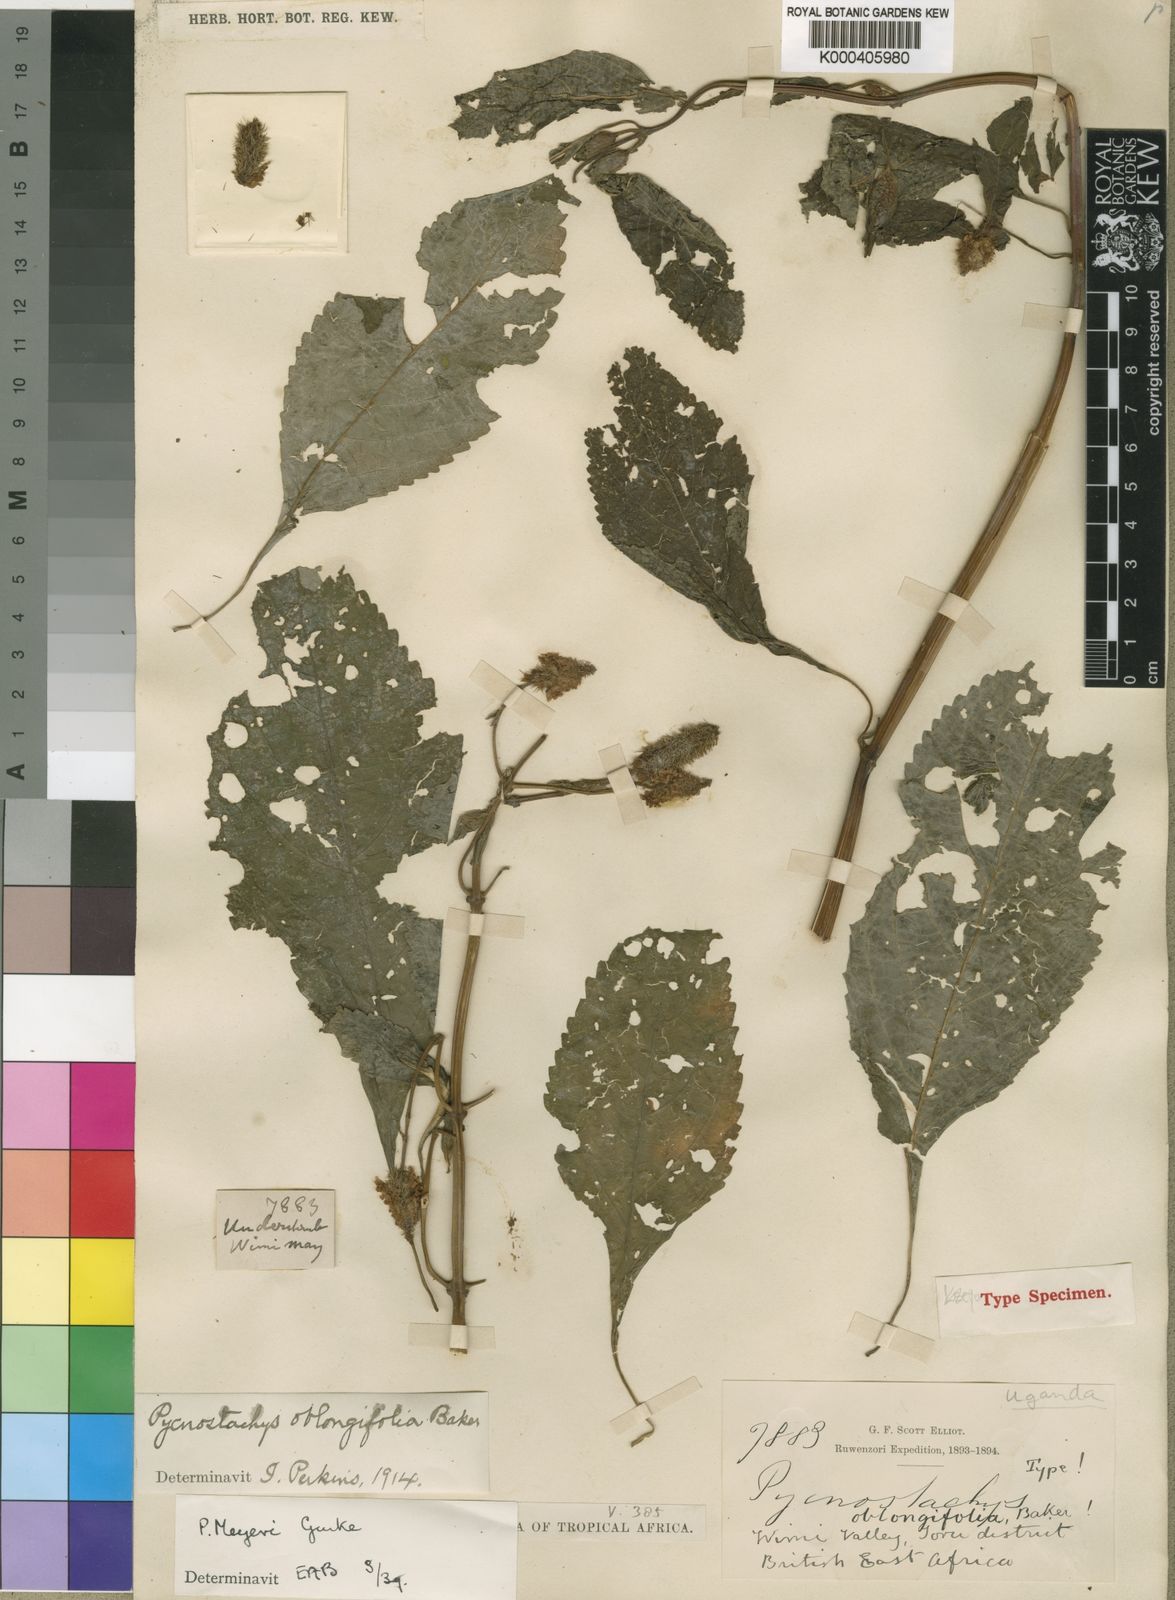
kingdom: Plantae
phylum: Tracheophyta
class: Magnoliopsida
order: Lamiales
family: Lamiaceae
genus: Coleus
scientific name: Coleus
